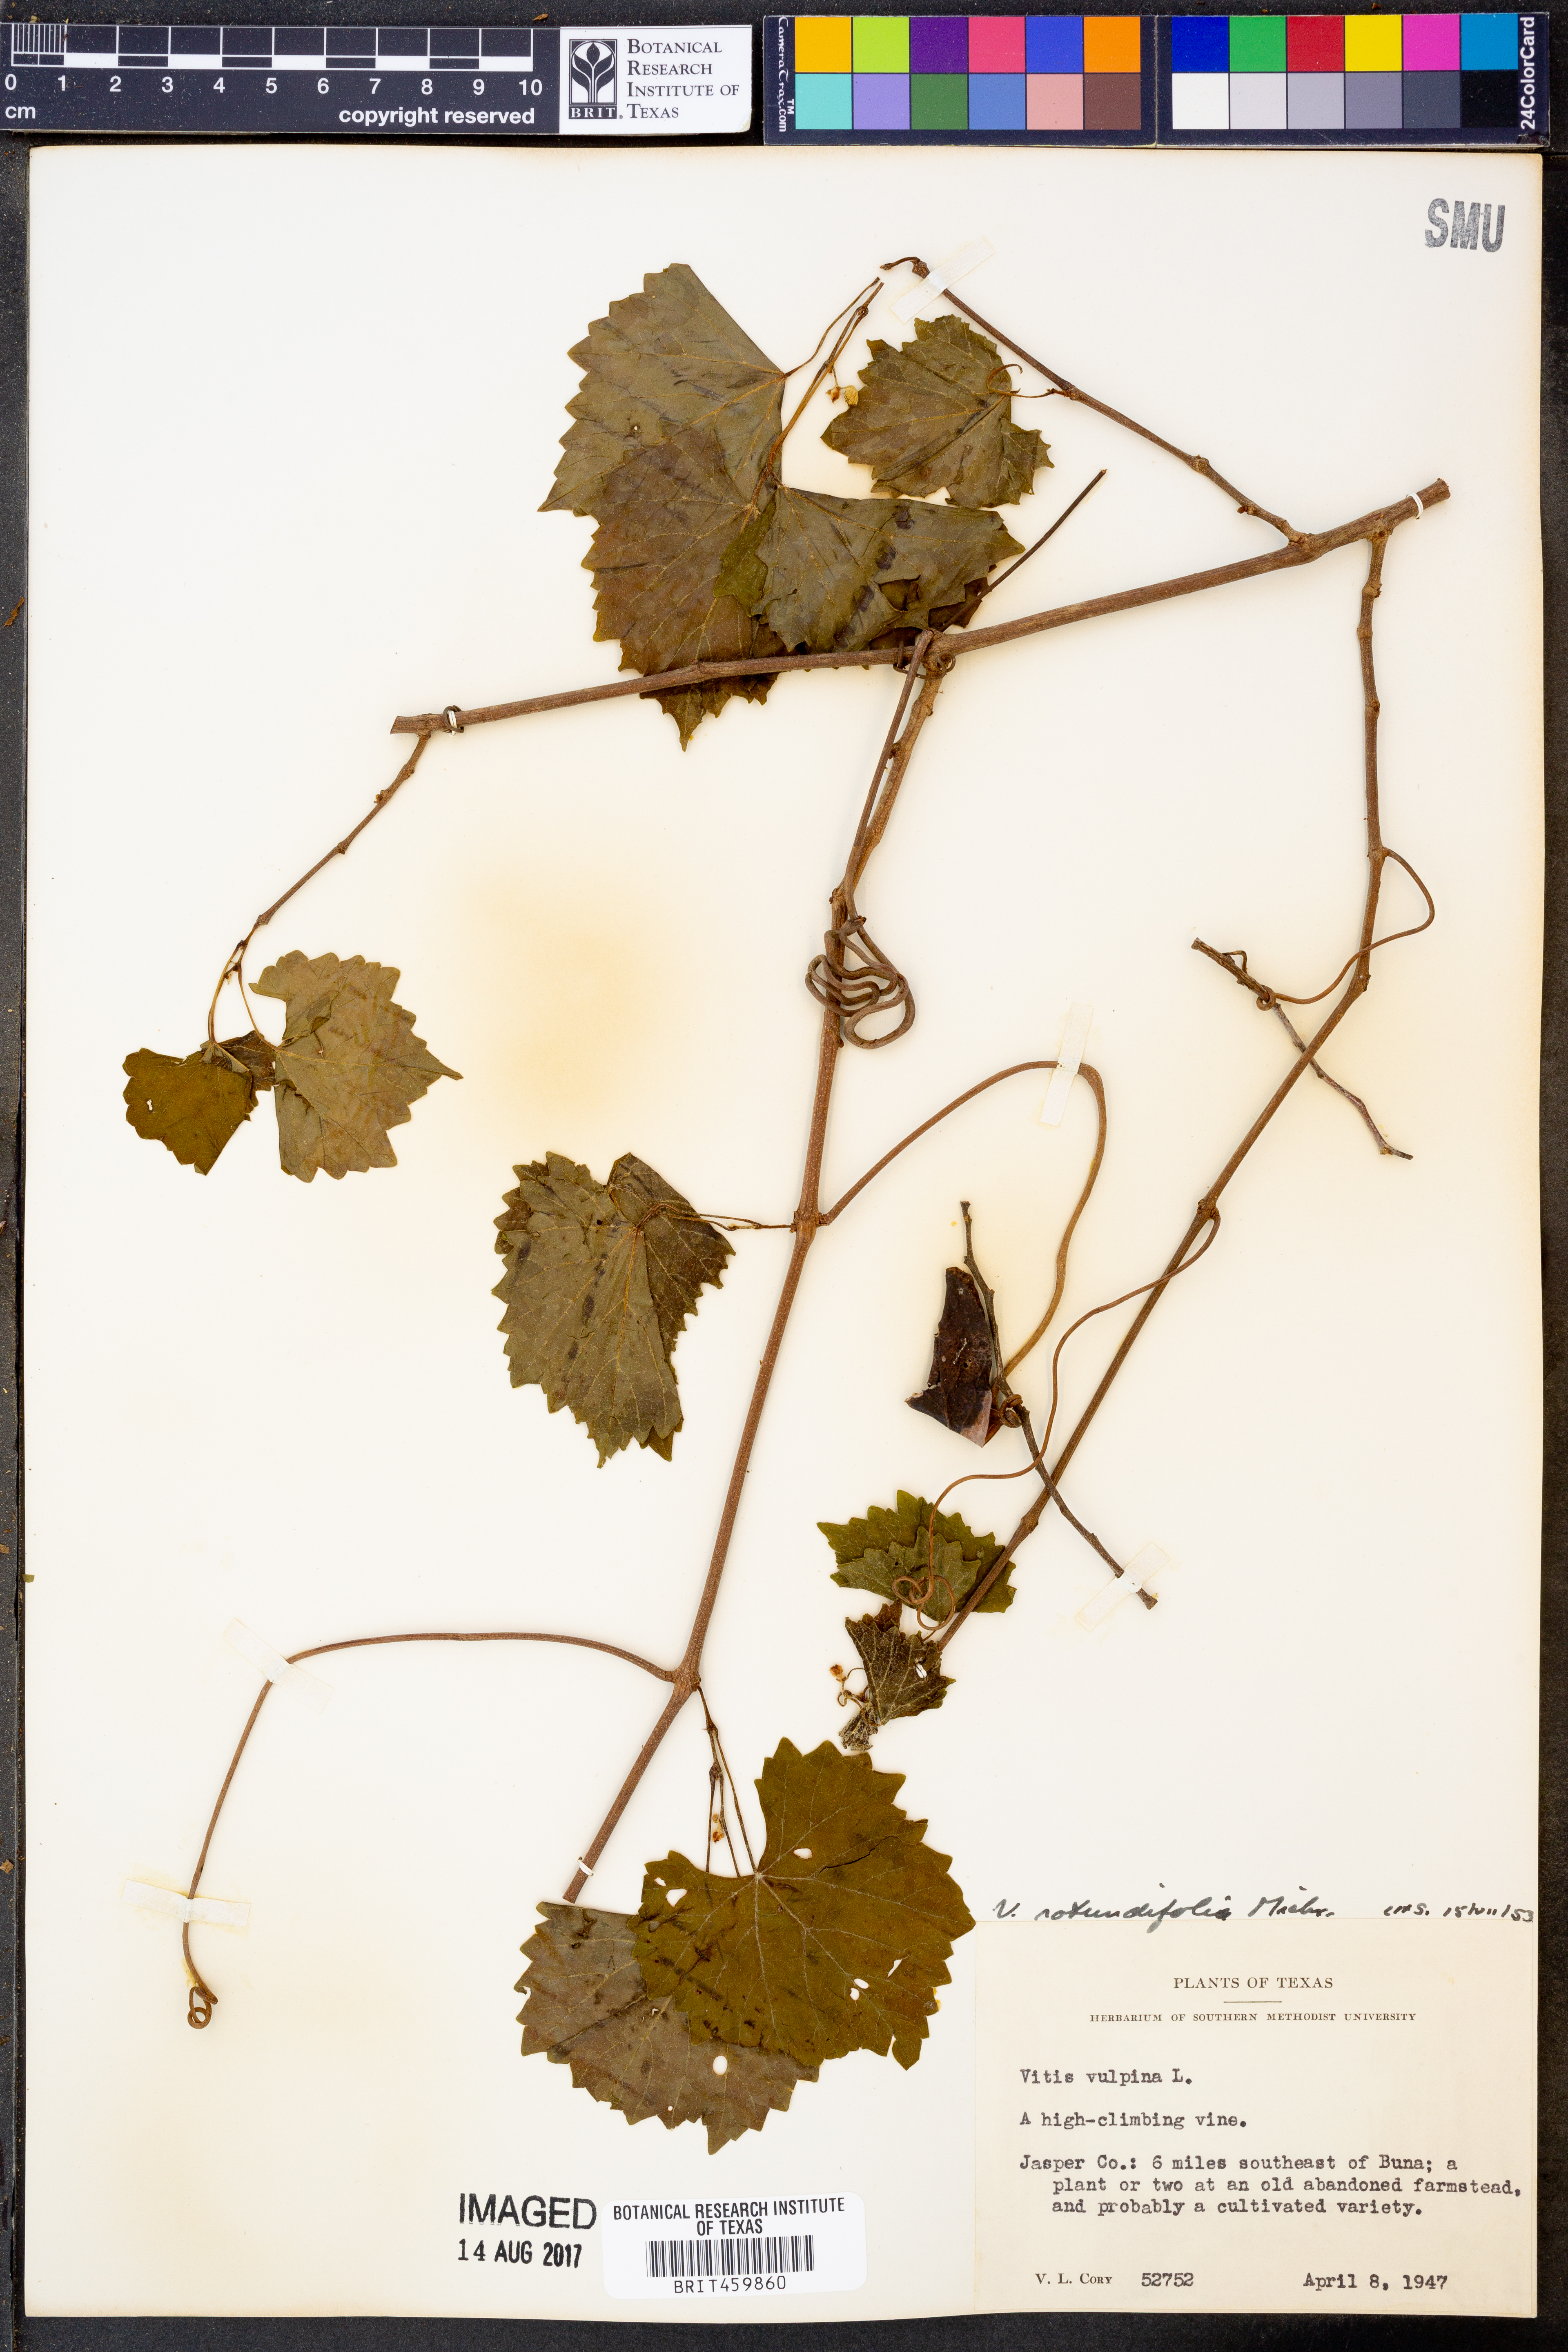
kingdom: Plantae
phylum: Tracheophyta
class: Magnoliopsida
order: Vitales
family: Vitaceae
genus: Vitis
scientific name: Vitis vulpina
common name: Frost grape
